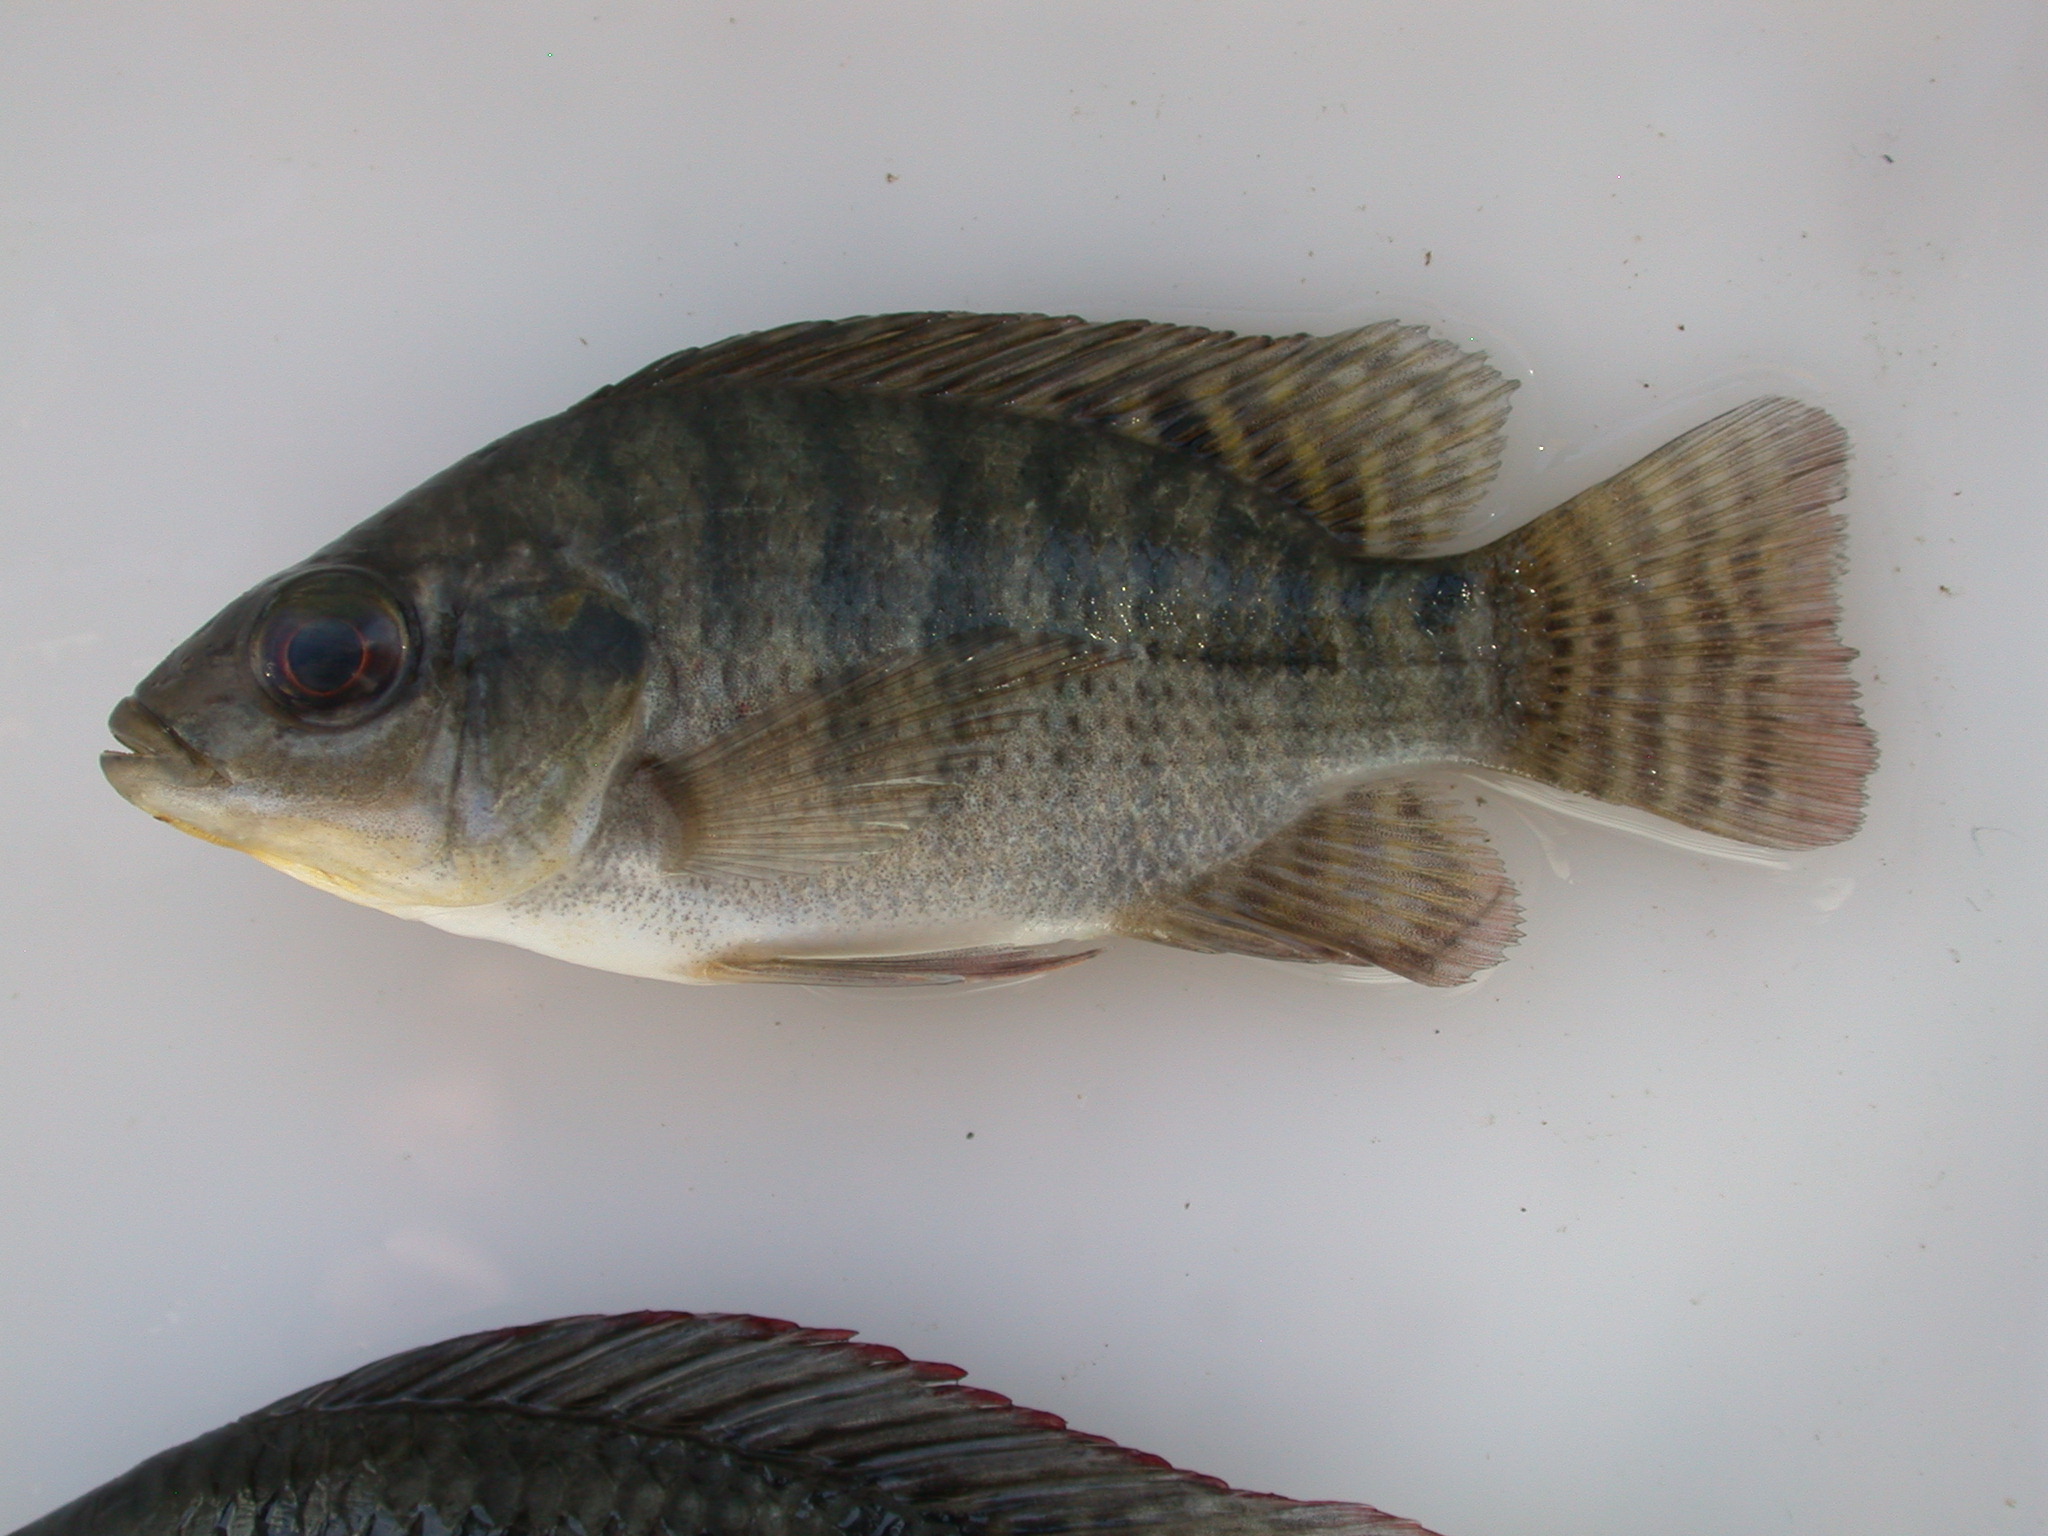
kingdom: Animalia
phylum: Chordata
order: Perciformes
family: Cichlidae
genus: Oreochromis
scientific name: Oreochromis niloticus
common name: Nile tilapia
